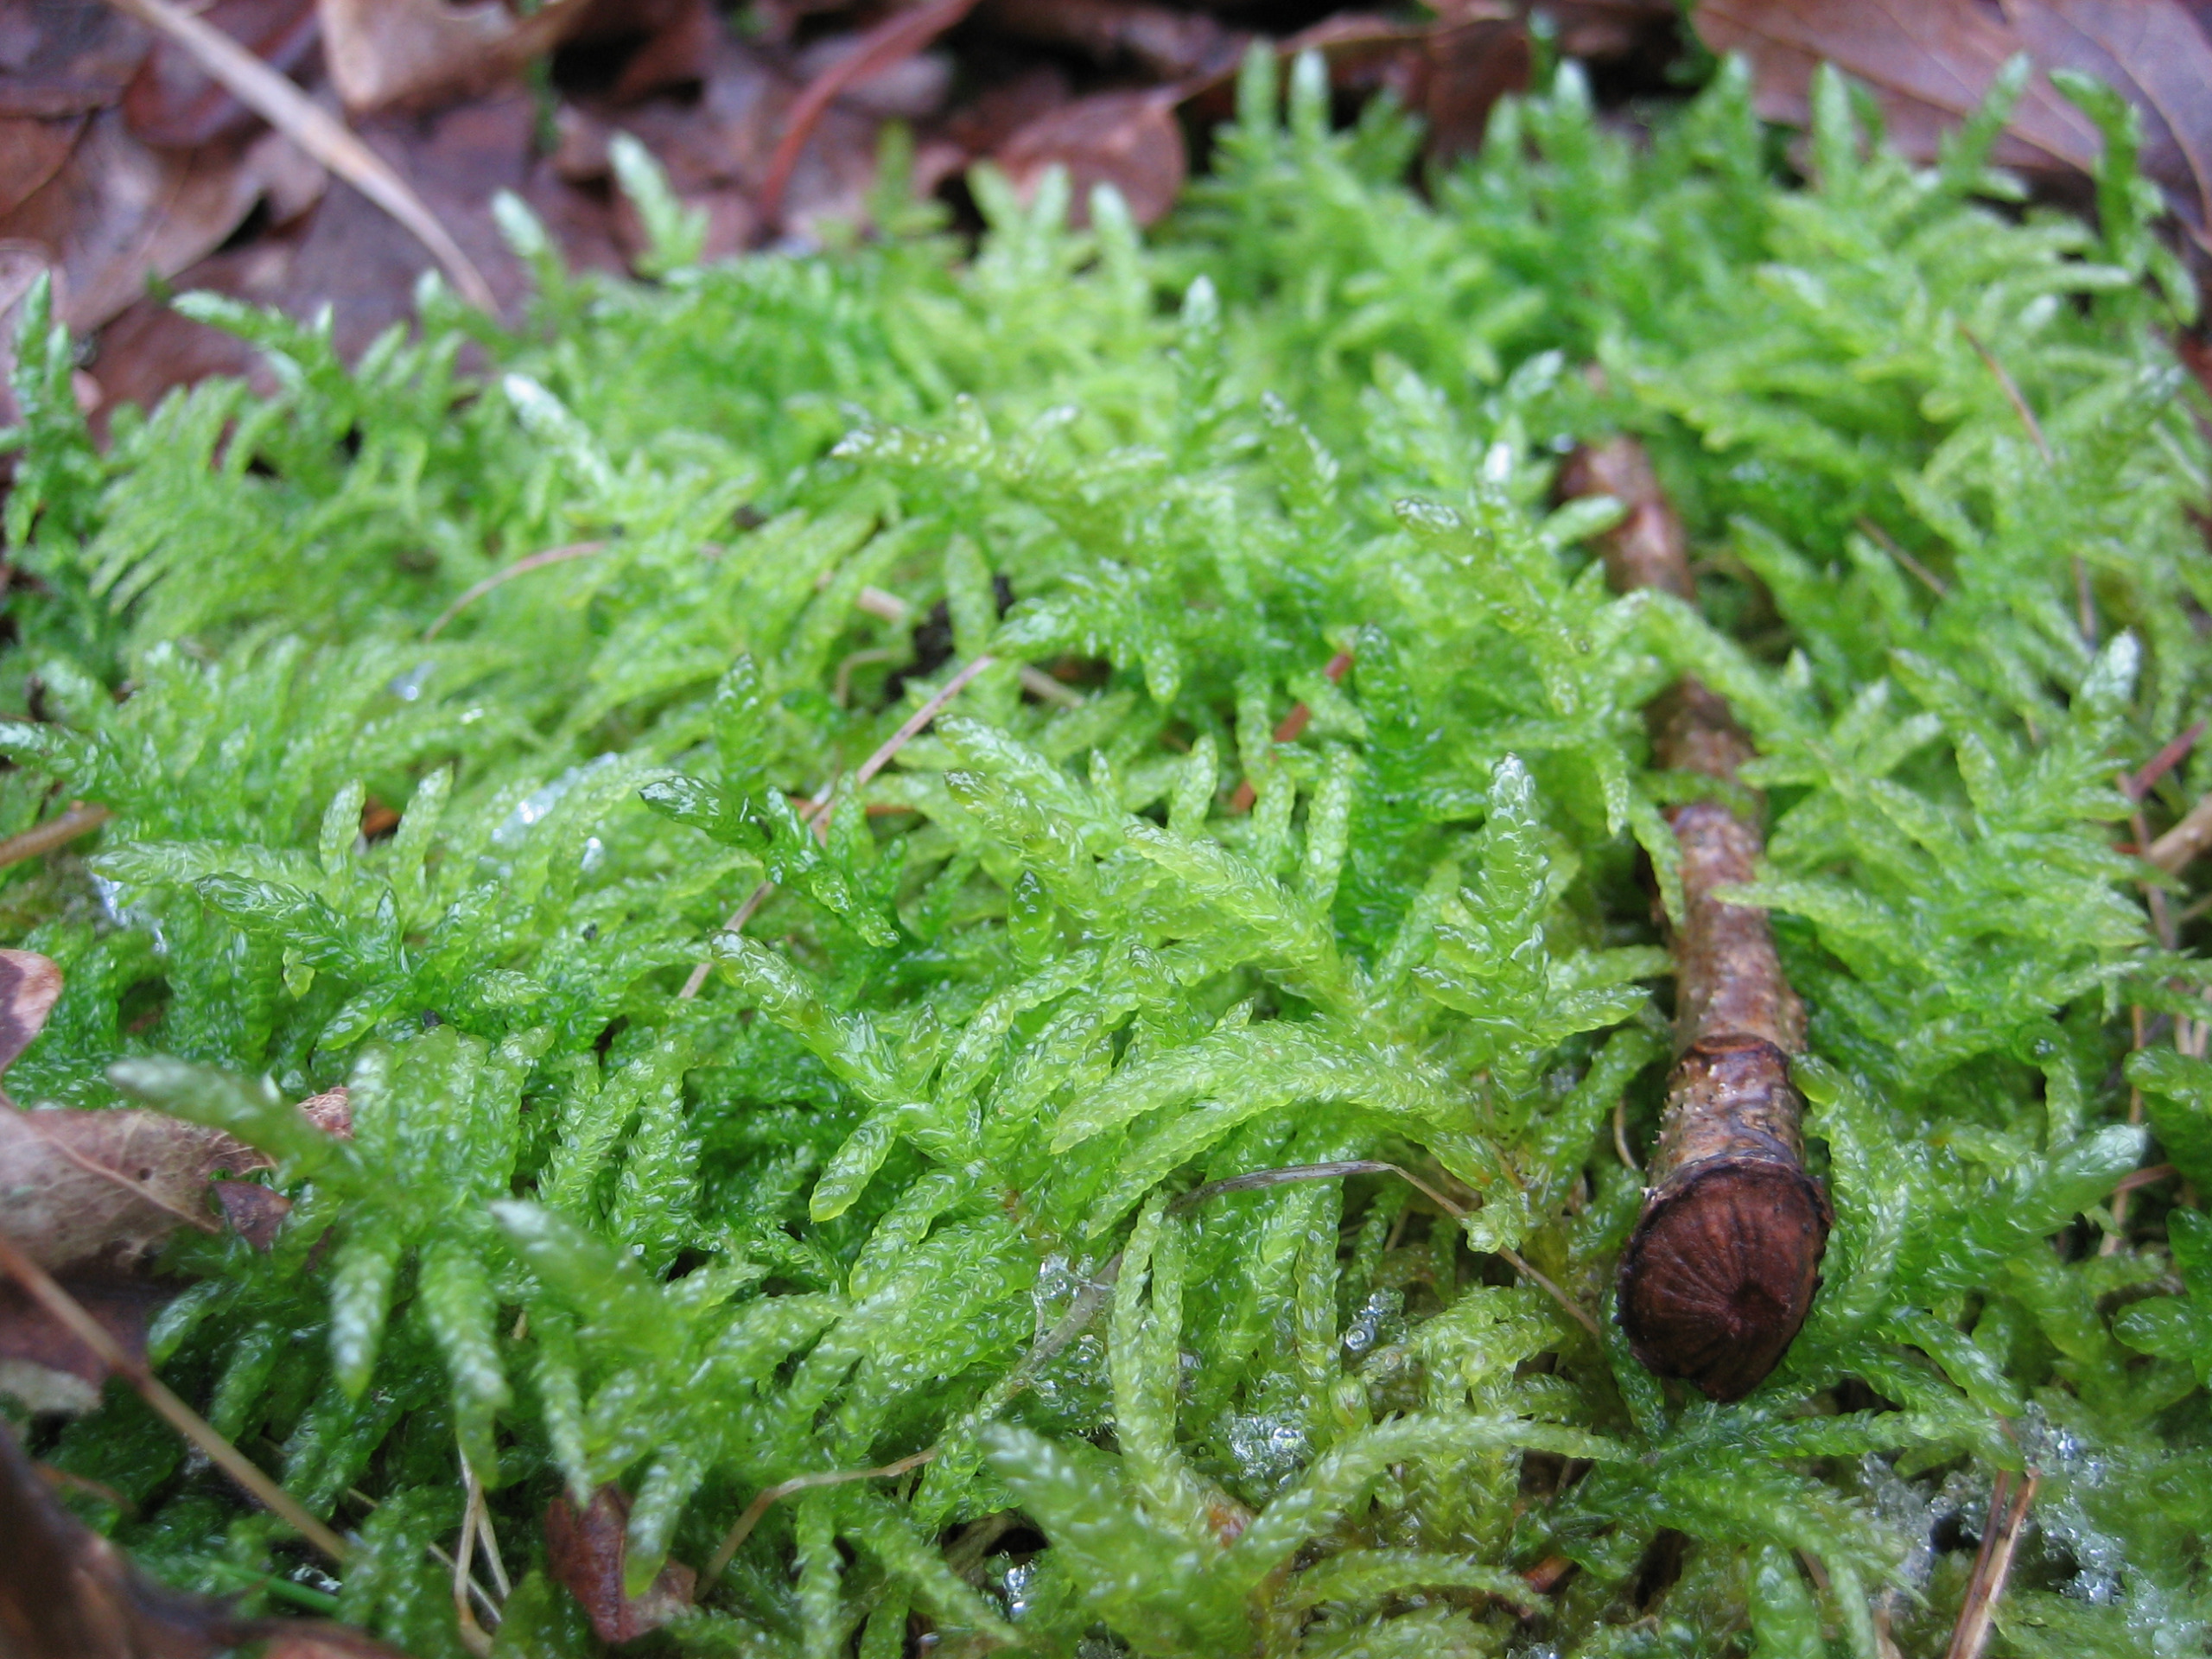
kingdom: Plantae
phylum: Bryophyta
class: Bryopsida
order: Hypnales
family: Brachytheciaceae
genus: Pseudoscleropodium
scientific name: Pseudoscleropodium purum
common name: Hulbladet fedtmos
